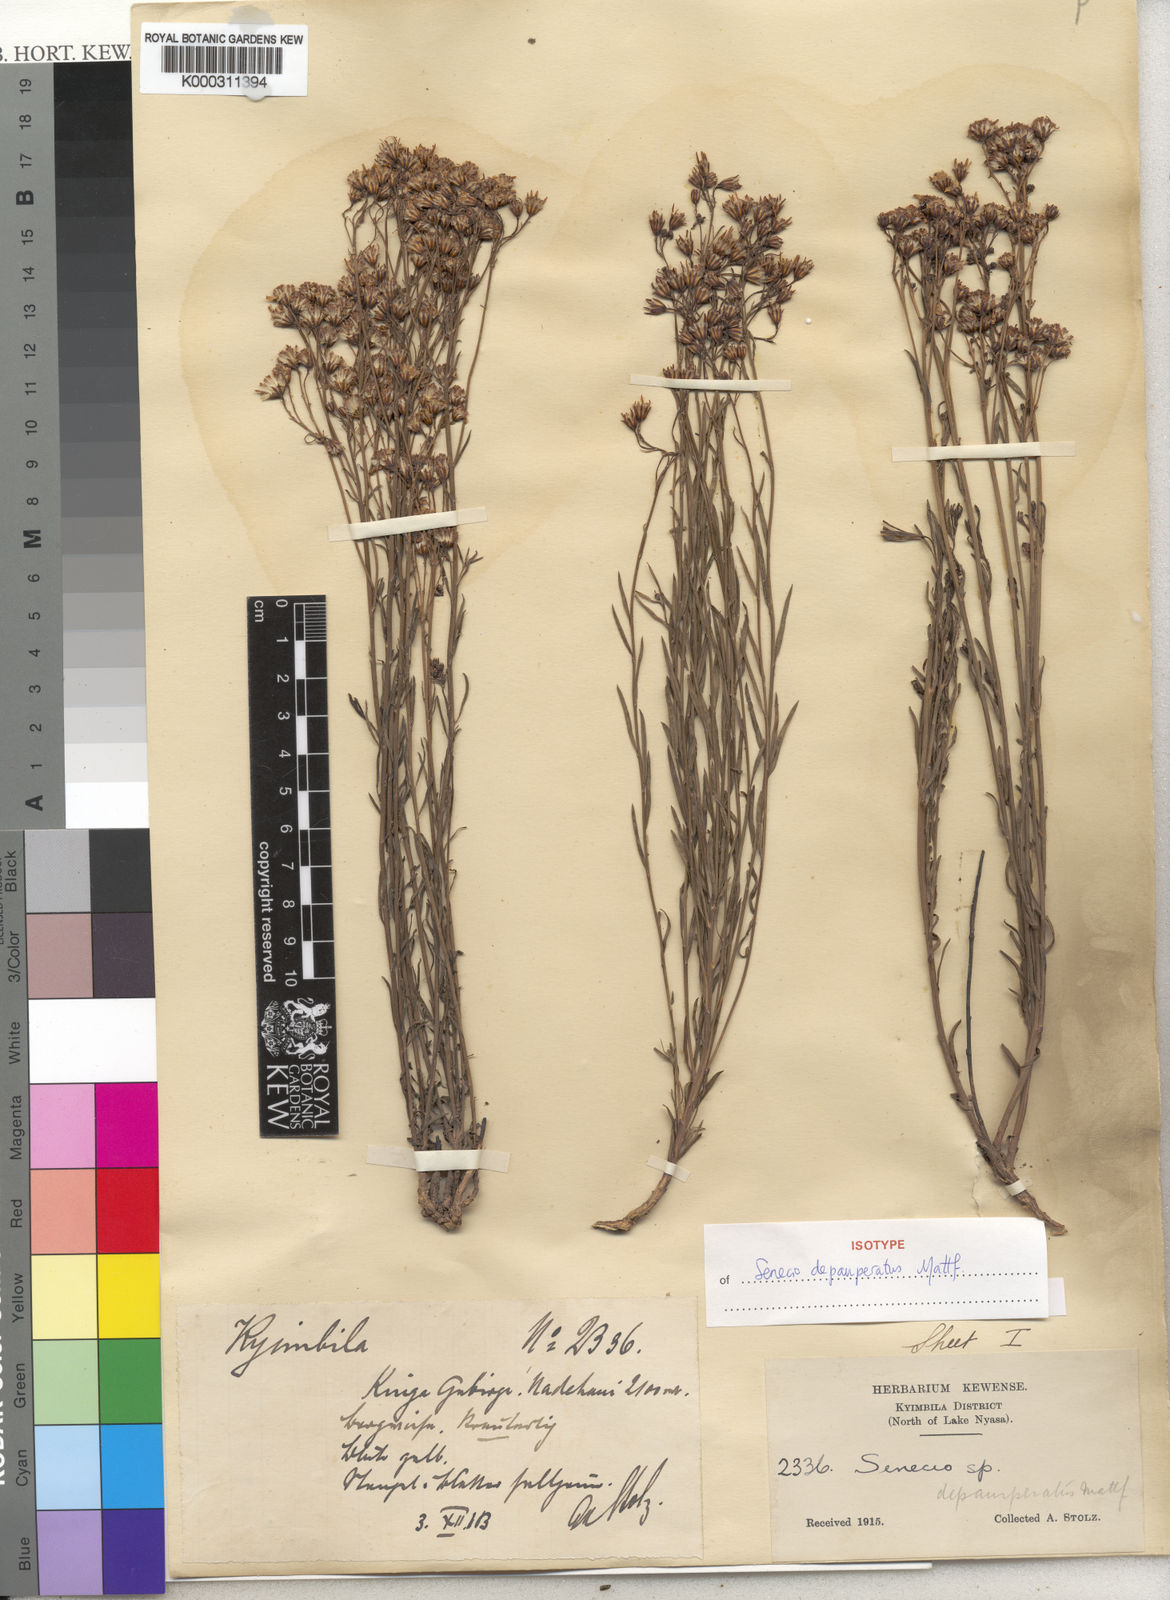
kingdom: Plantae
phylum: Tracheophyta
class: Magnoliopsida
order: Asterales
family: Asteraceae
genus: Senecio
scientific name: Senecio depauperatus
